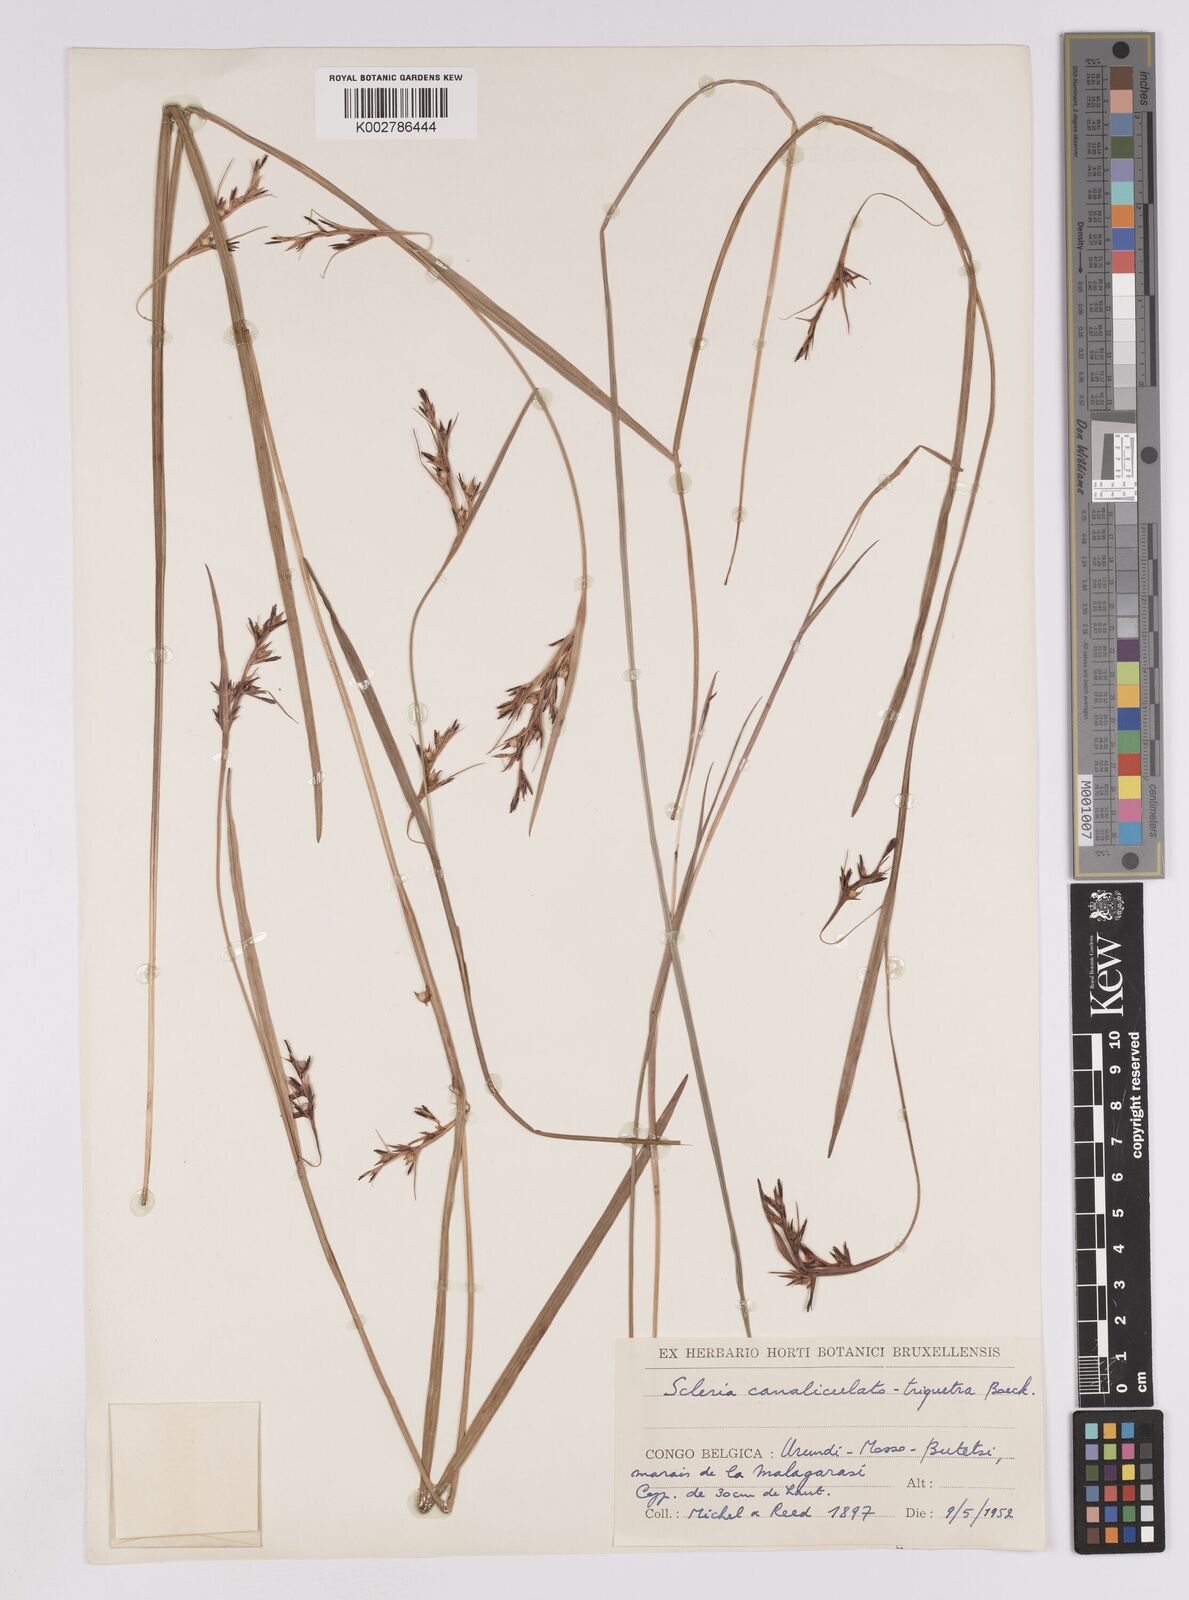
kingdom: Plantae
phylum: Tracheophyta
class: Liliopsida
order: Poales
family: Cyperaceae
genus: Scleria
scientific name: Scleria globonux
